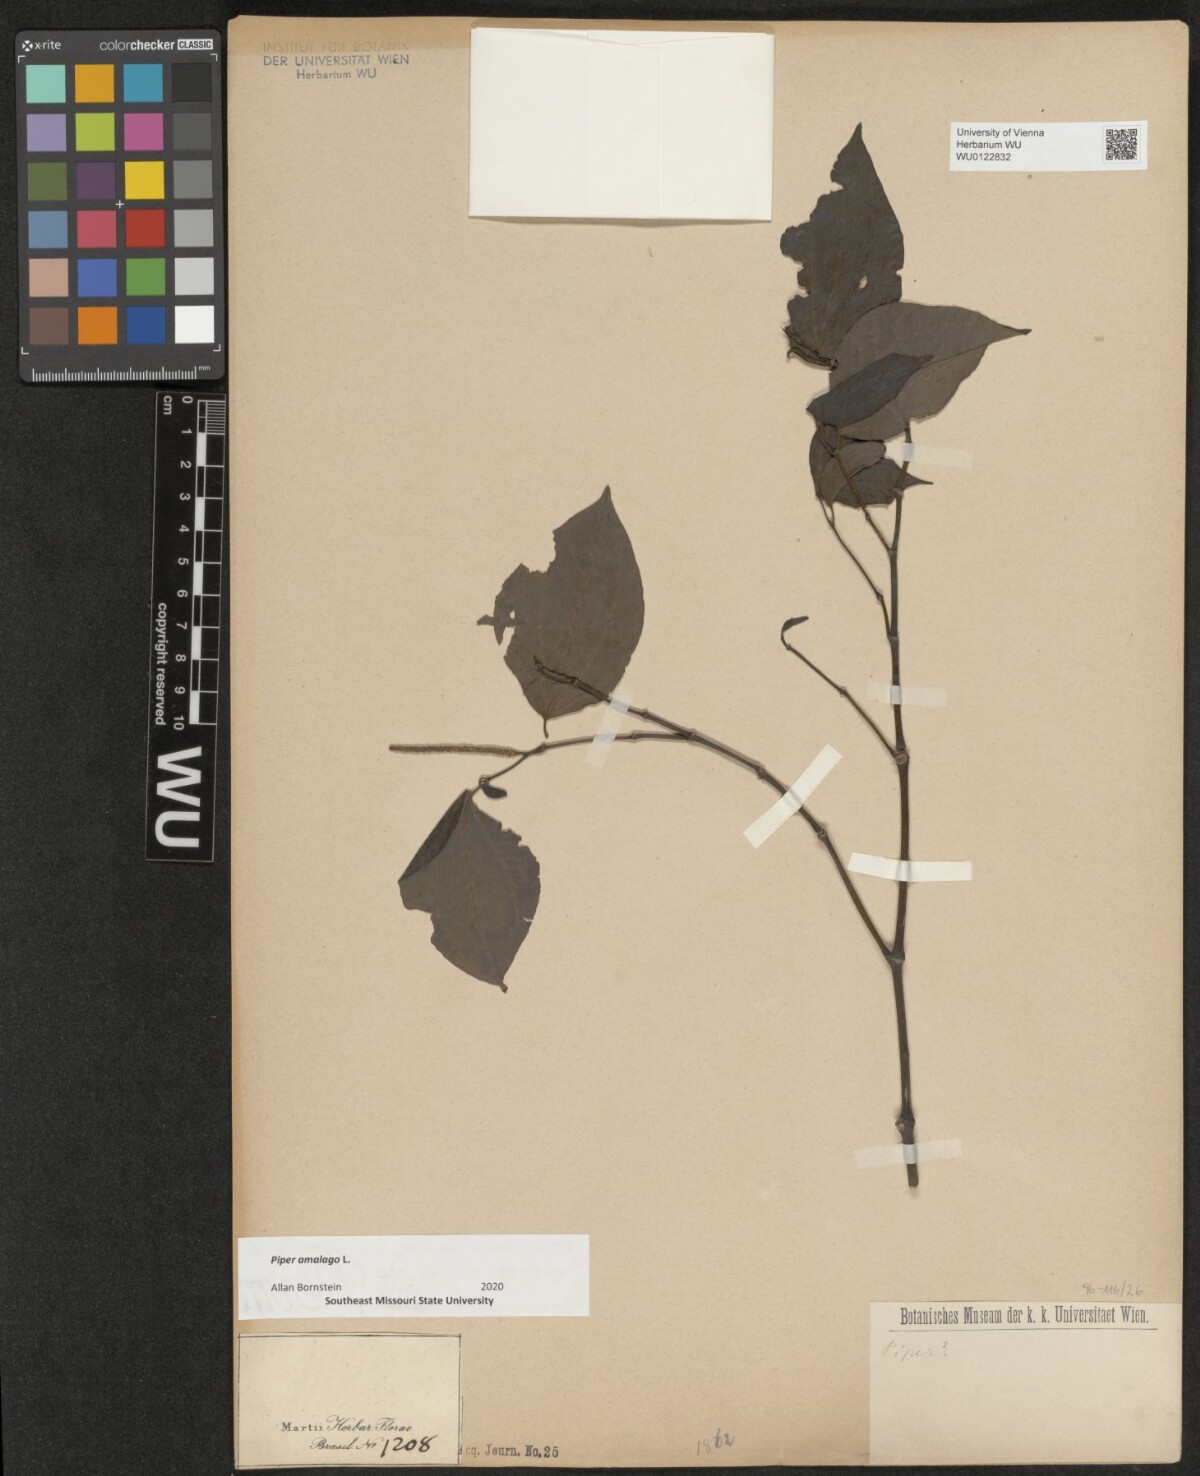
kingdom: Plantae
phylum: Tracheophyta
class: Magnoliopsida
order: Piperales
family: Piperaceae
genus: Piper
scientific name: Piper amalago
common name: Pepper-elder
